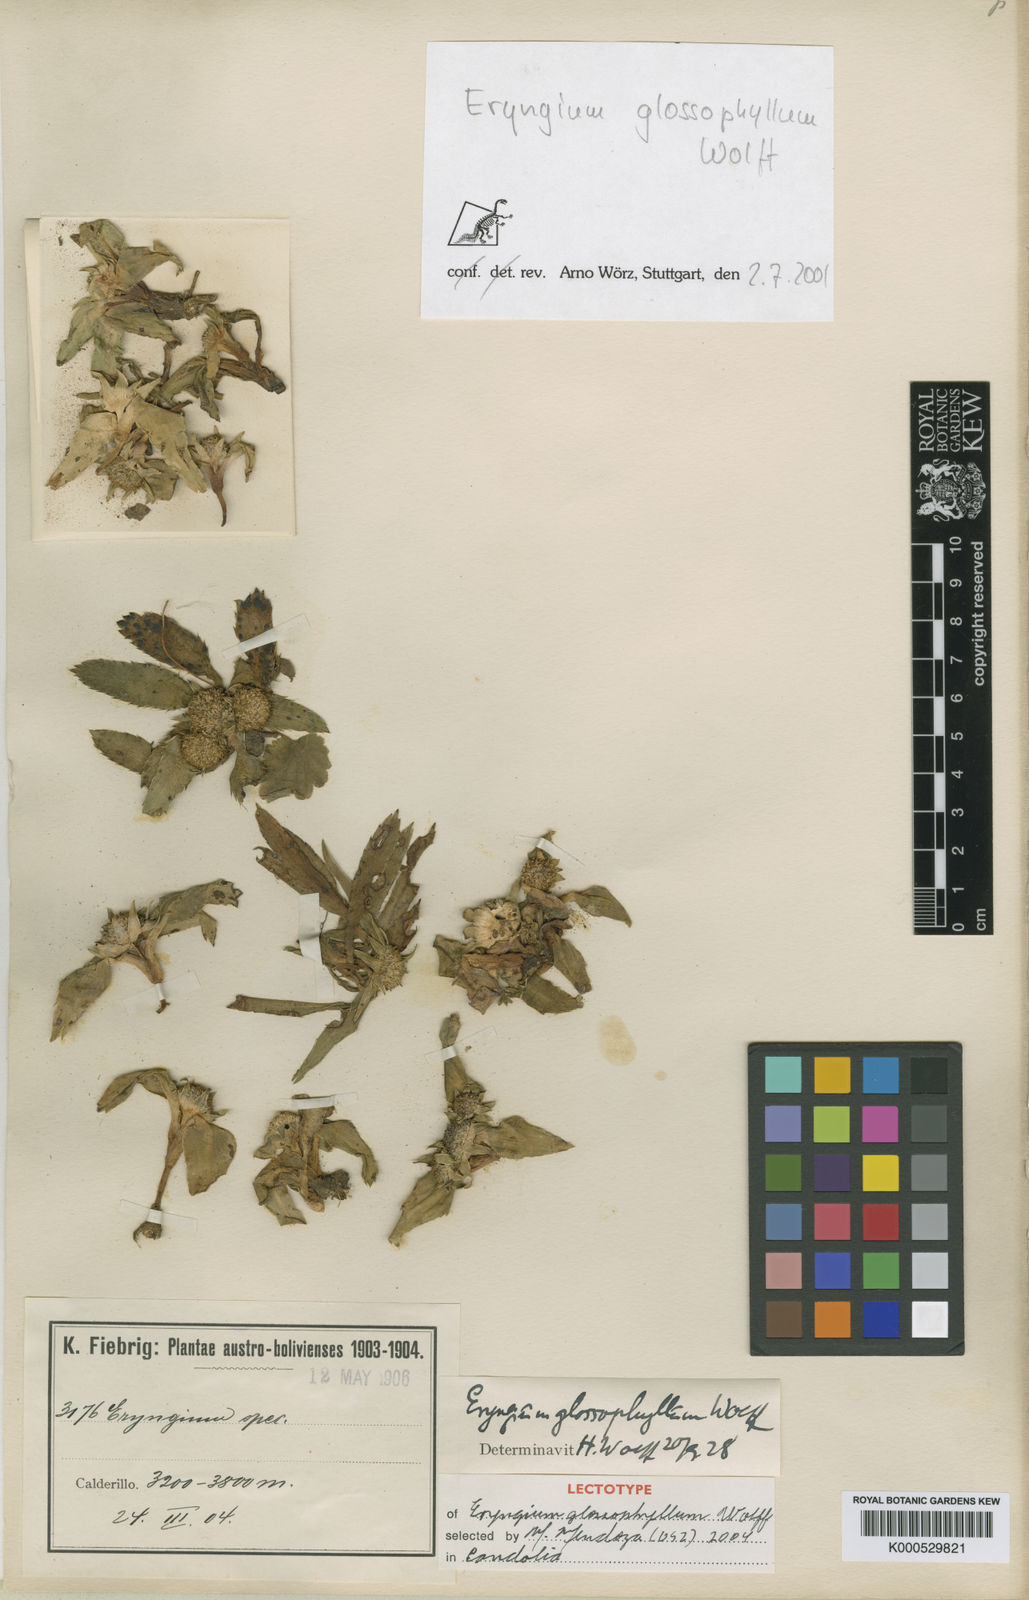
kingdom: Plantae
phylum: Tracheophyta
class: Magnoliopsida
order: Apiales
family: Apiaceae
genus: Eryngium
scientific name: Eryngium glossophyllum
